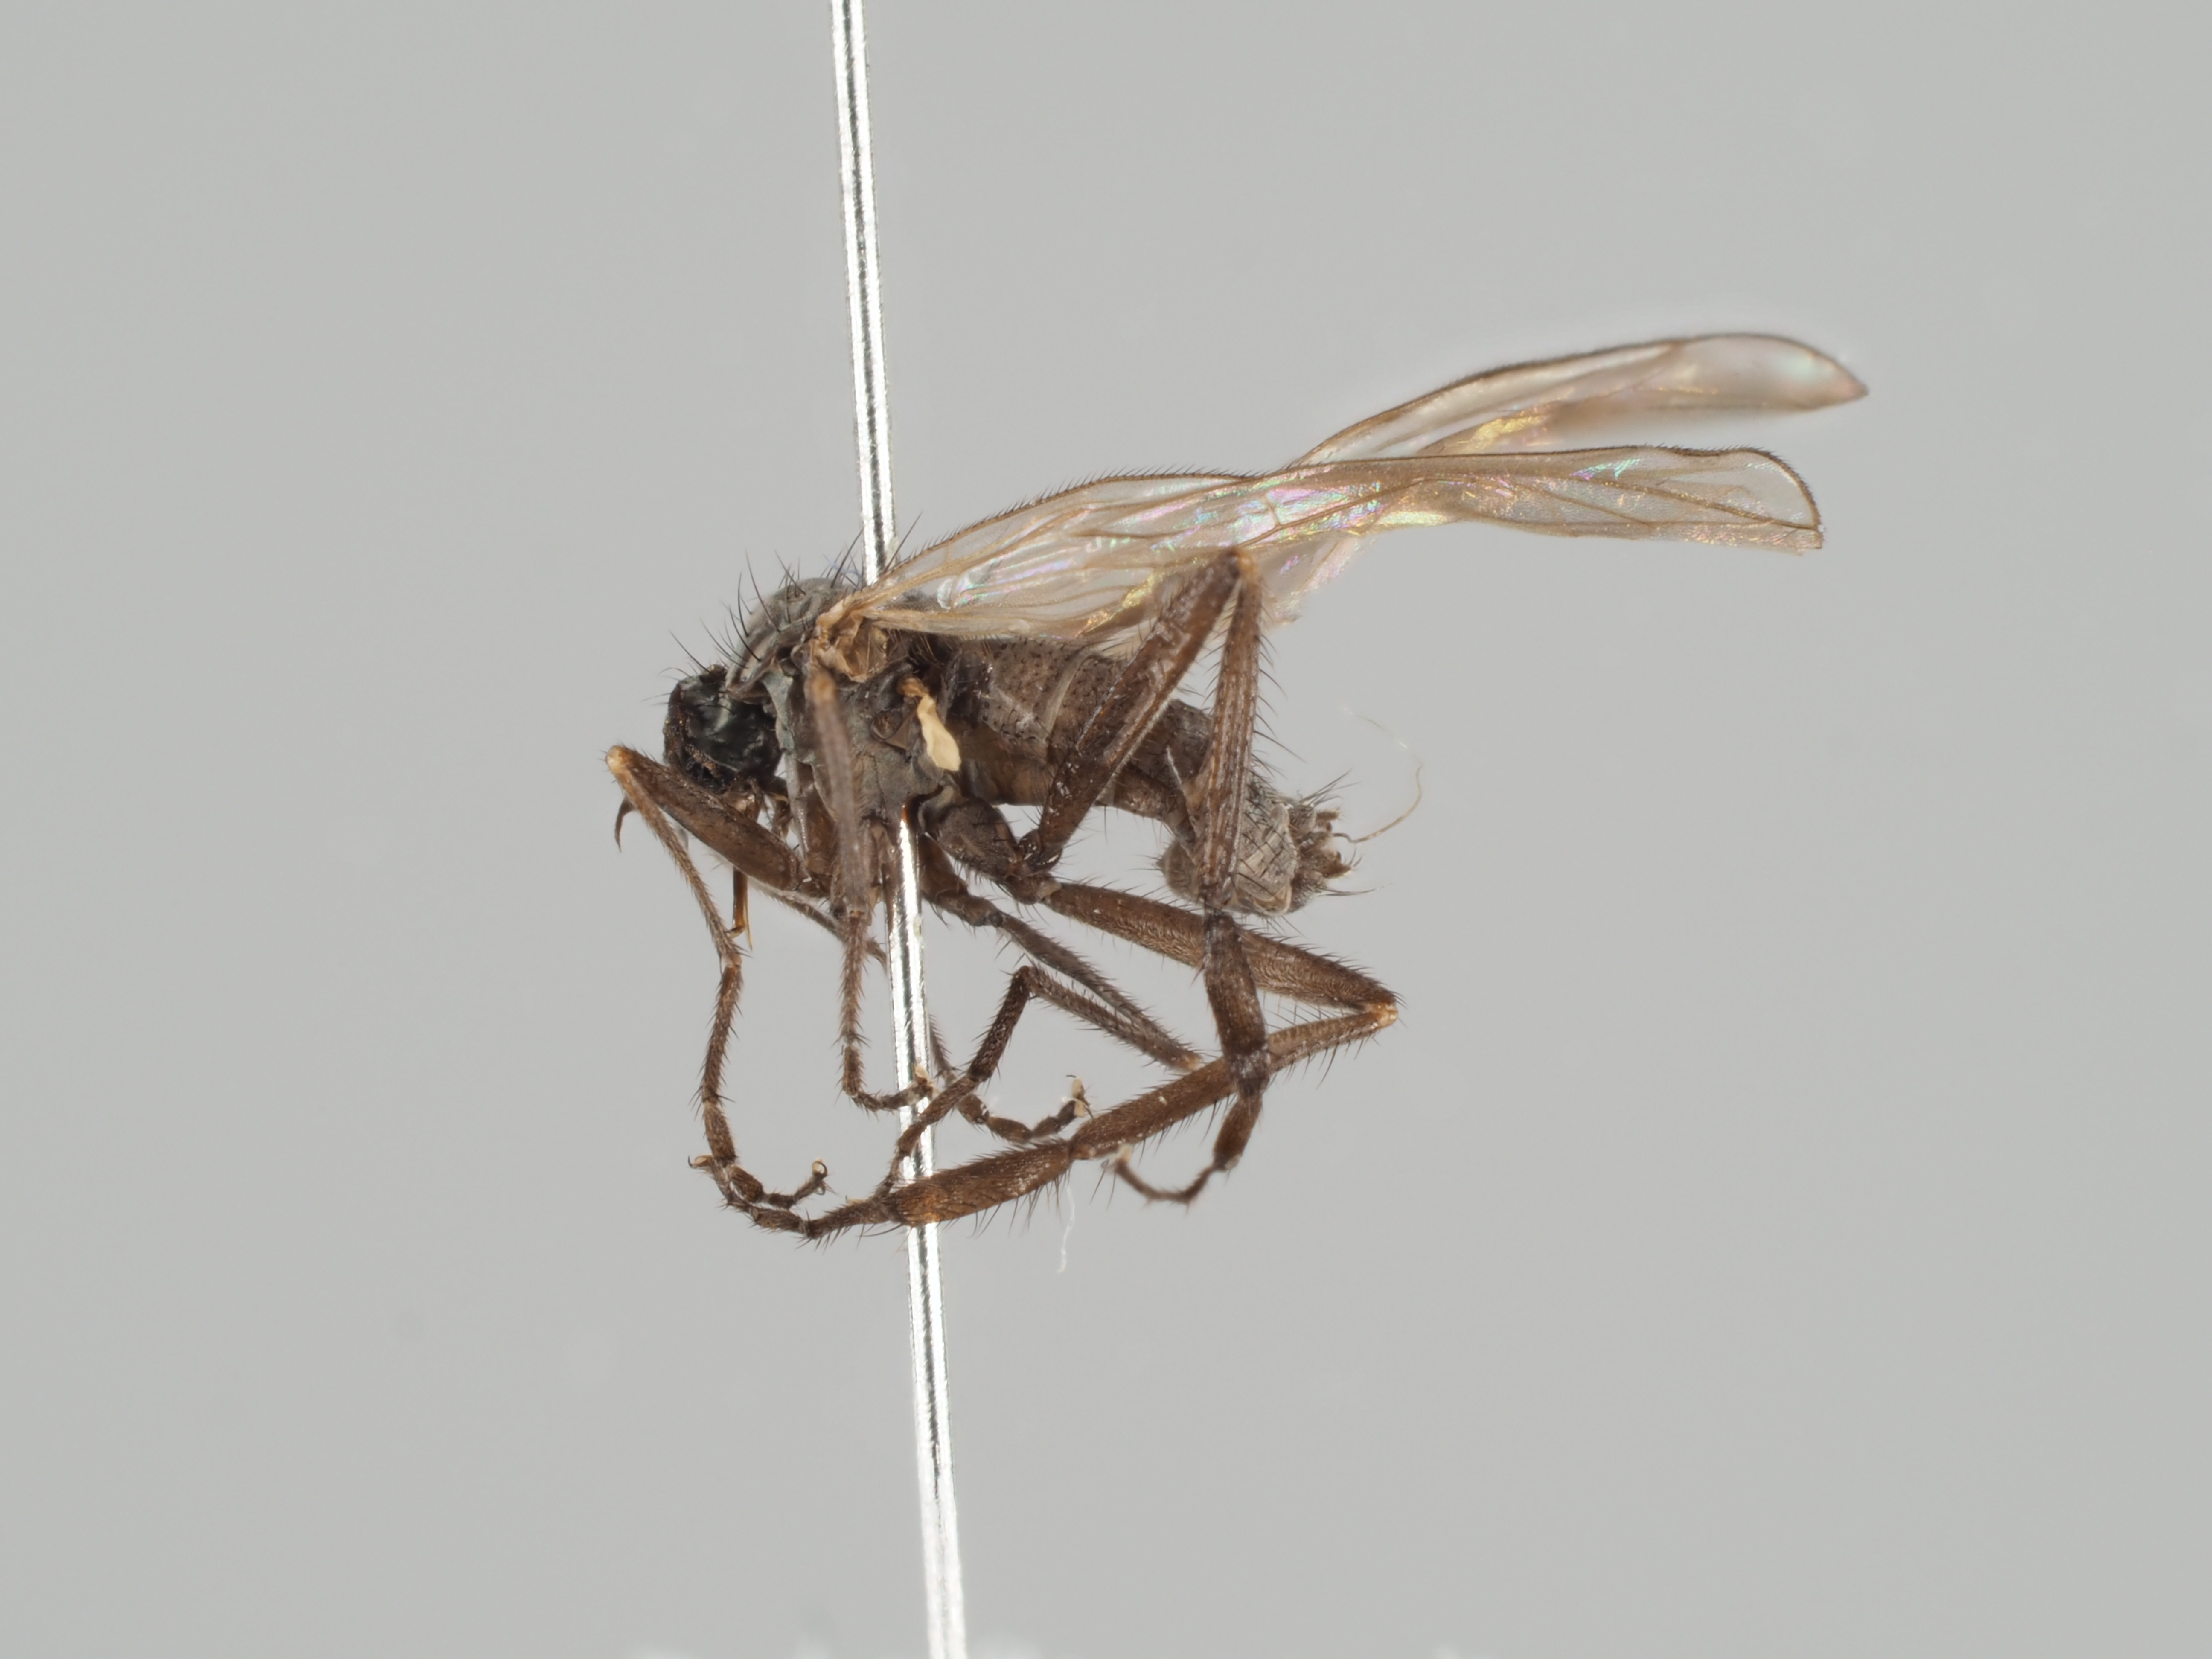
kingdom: Animalia
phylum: Arthropoda
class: Insecta
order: Diptera
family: Empididae
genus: Rhamphomyia
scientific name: Rhamphomyia rufipes
